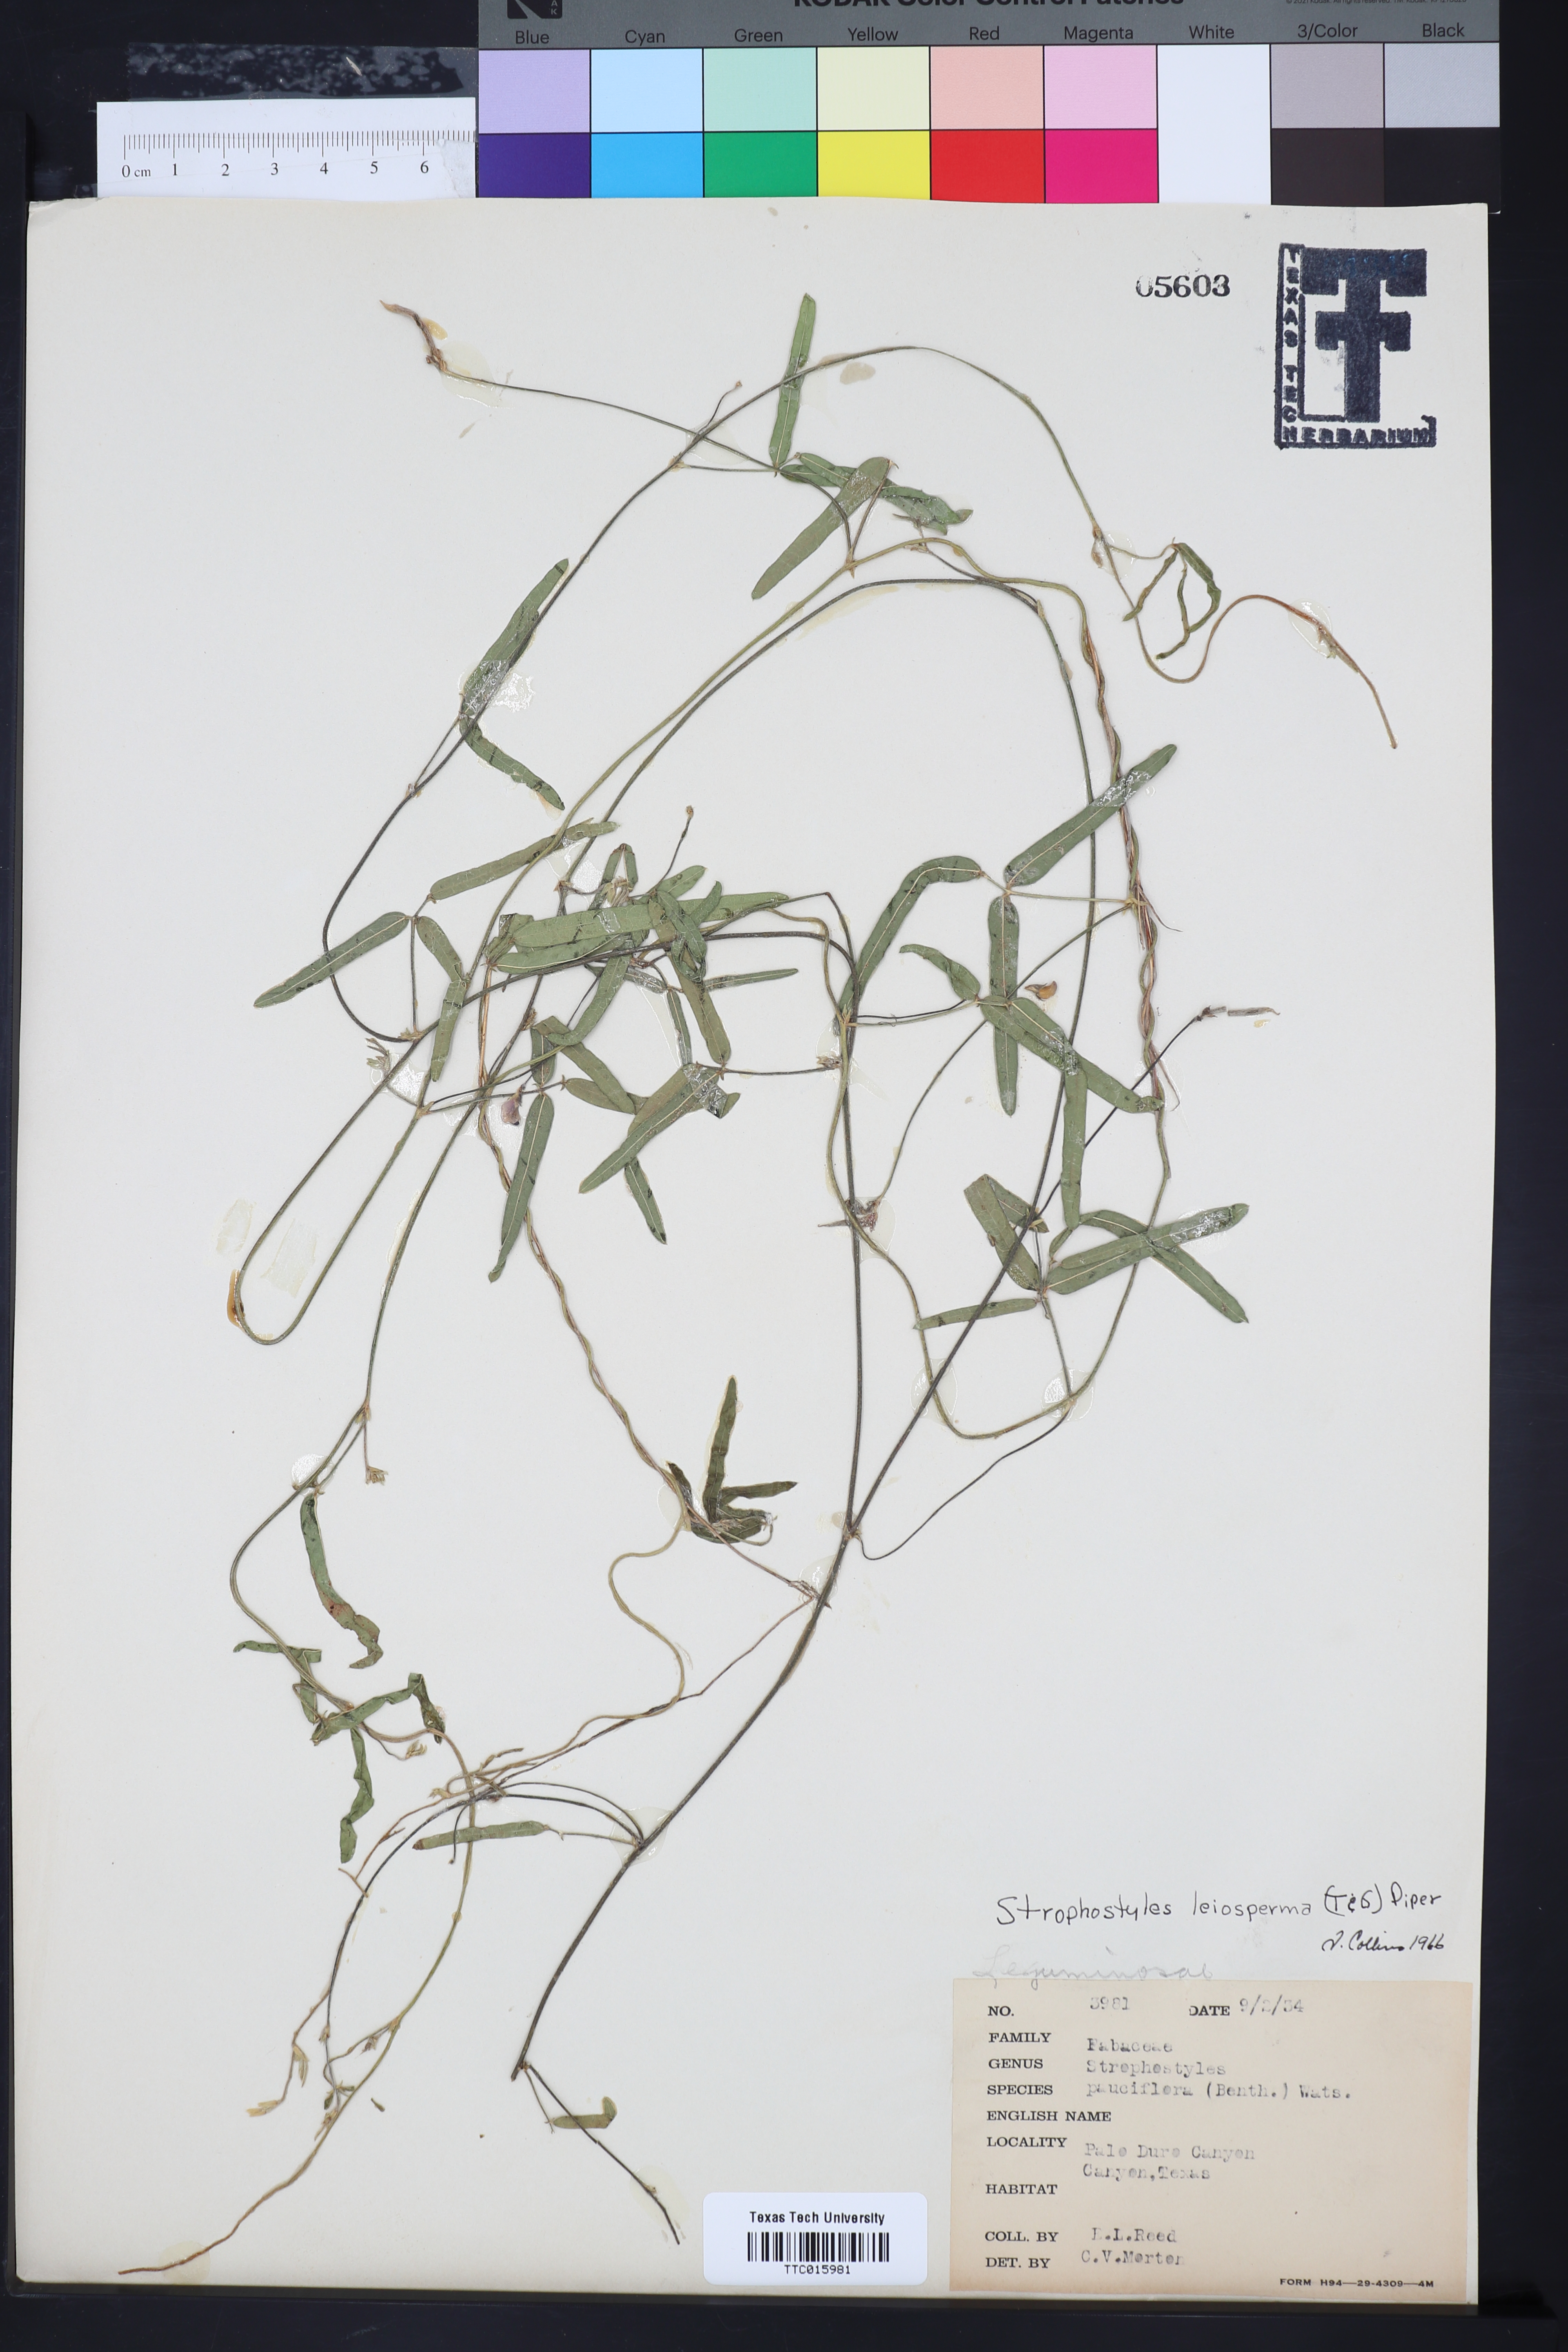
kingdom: Plantae
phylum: Tracheophyta
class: Magnoliopsida
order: Fabales
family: Fabaceae
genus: Strophostyles
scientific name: Strophostyles leiosperma
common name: Smooth-seed wild bean
